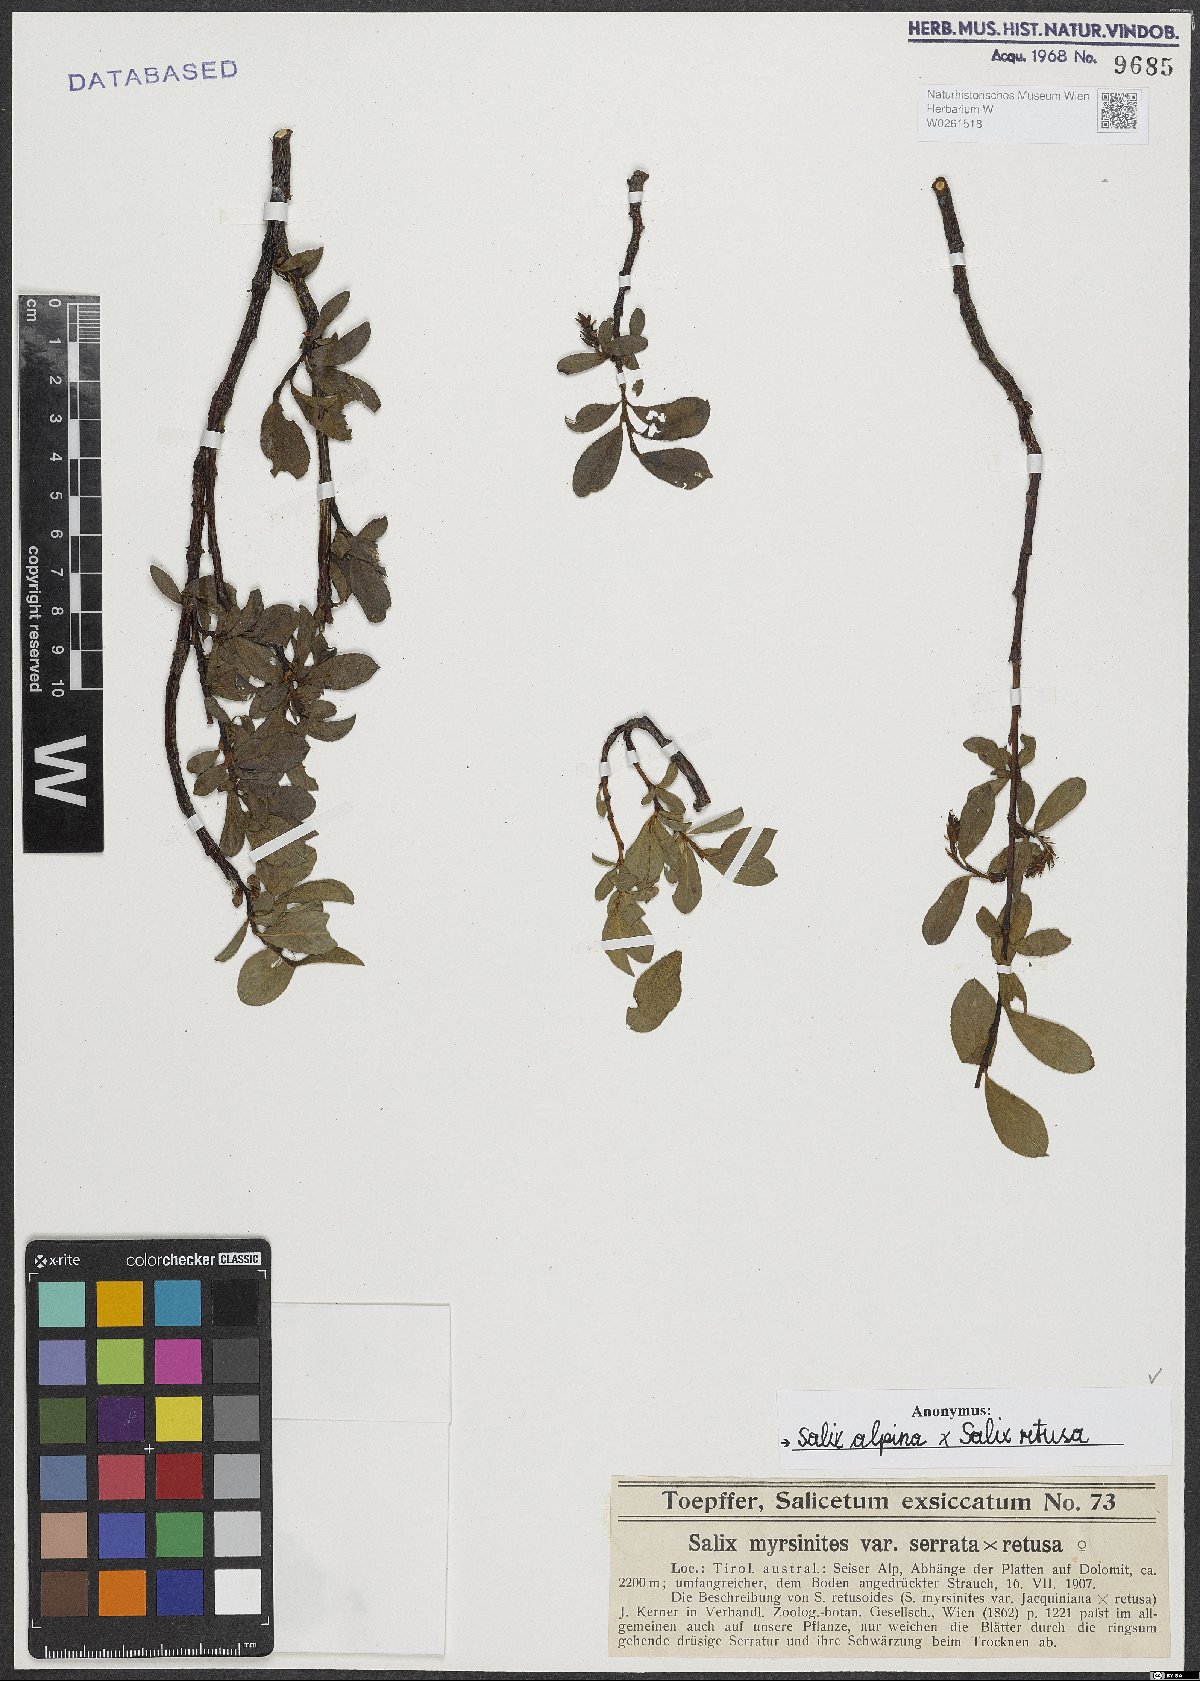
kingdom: Plantae
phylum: Tracheophyta
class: Magnoliopsida
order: Malpighiales
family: Salicaceae
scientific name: Salicaceae
